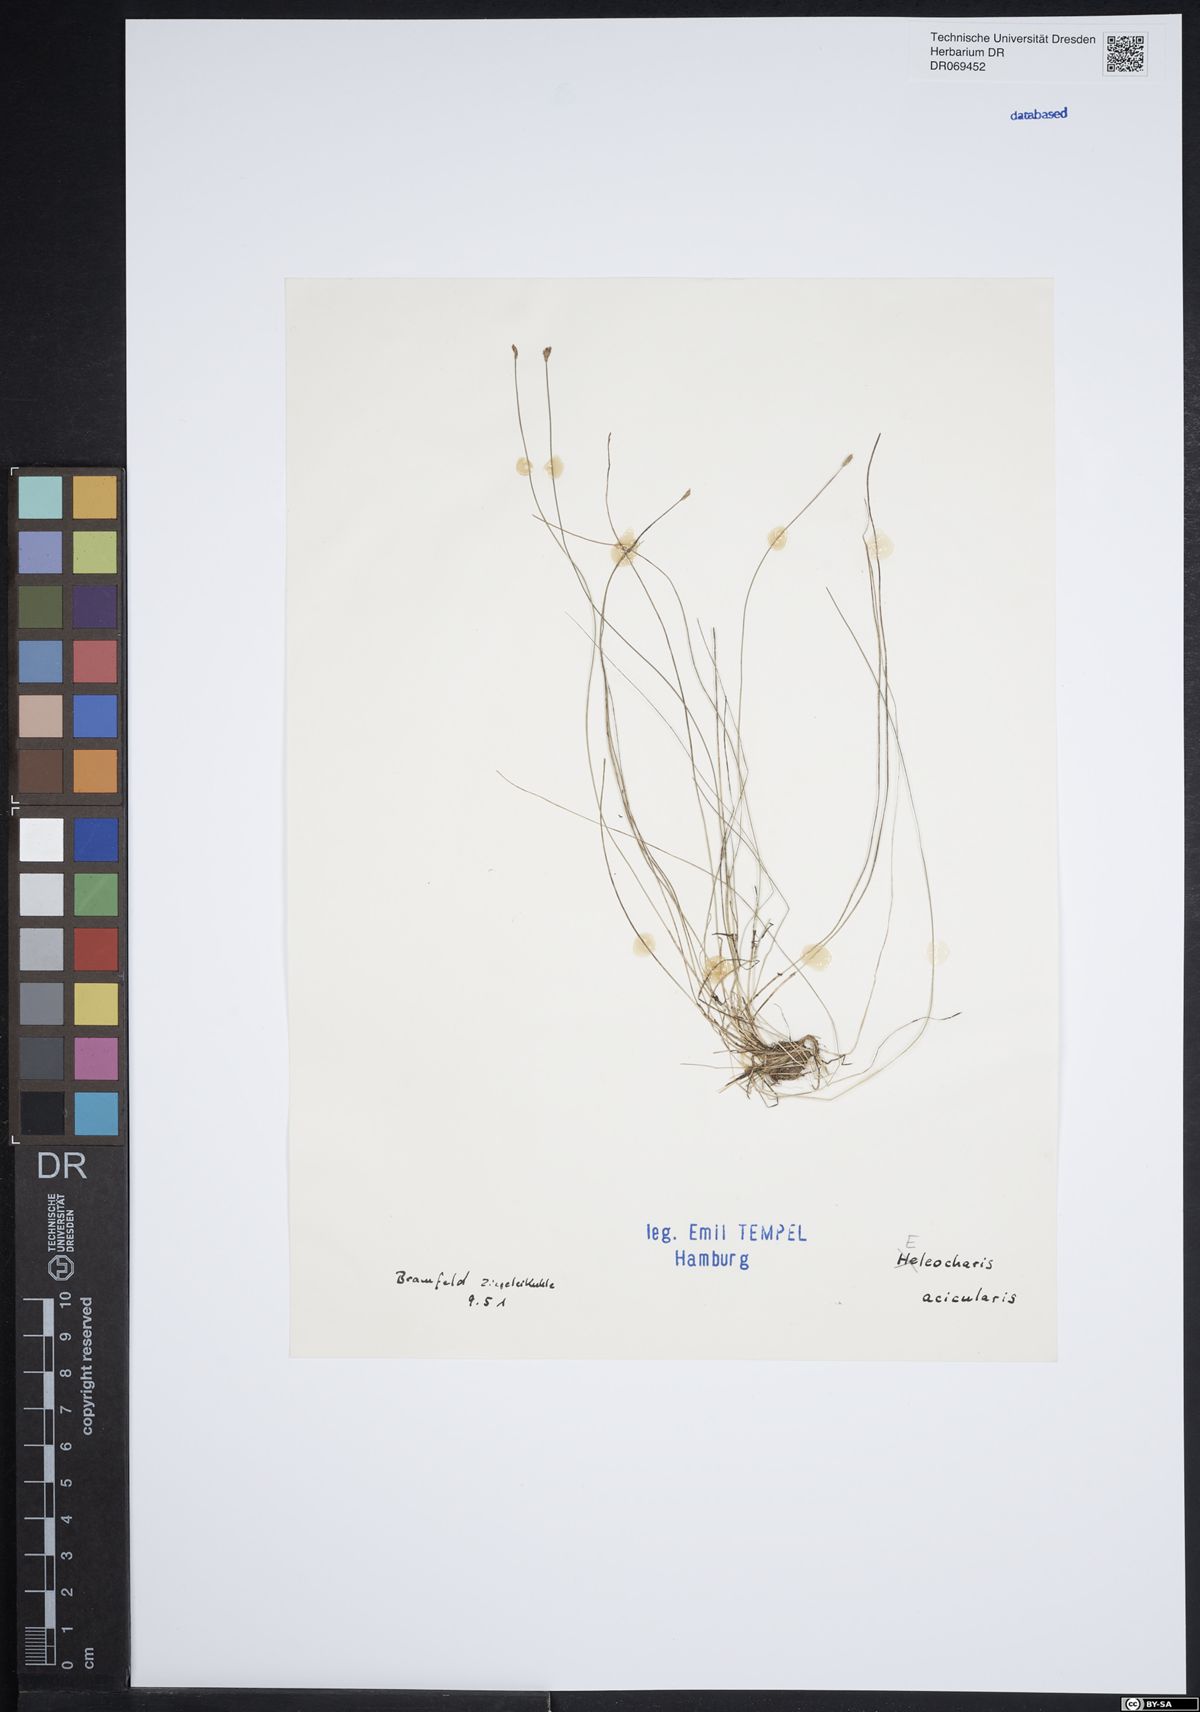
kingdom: Plantae
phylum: Tracheophyta
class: Liliopsida
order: Poales
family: Cyperaceae
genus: Eleocharis
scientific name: Eleocharis acicularis
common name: Needle spike-rush
